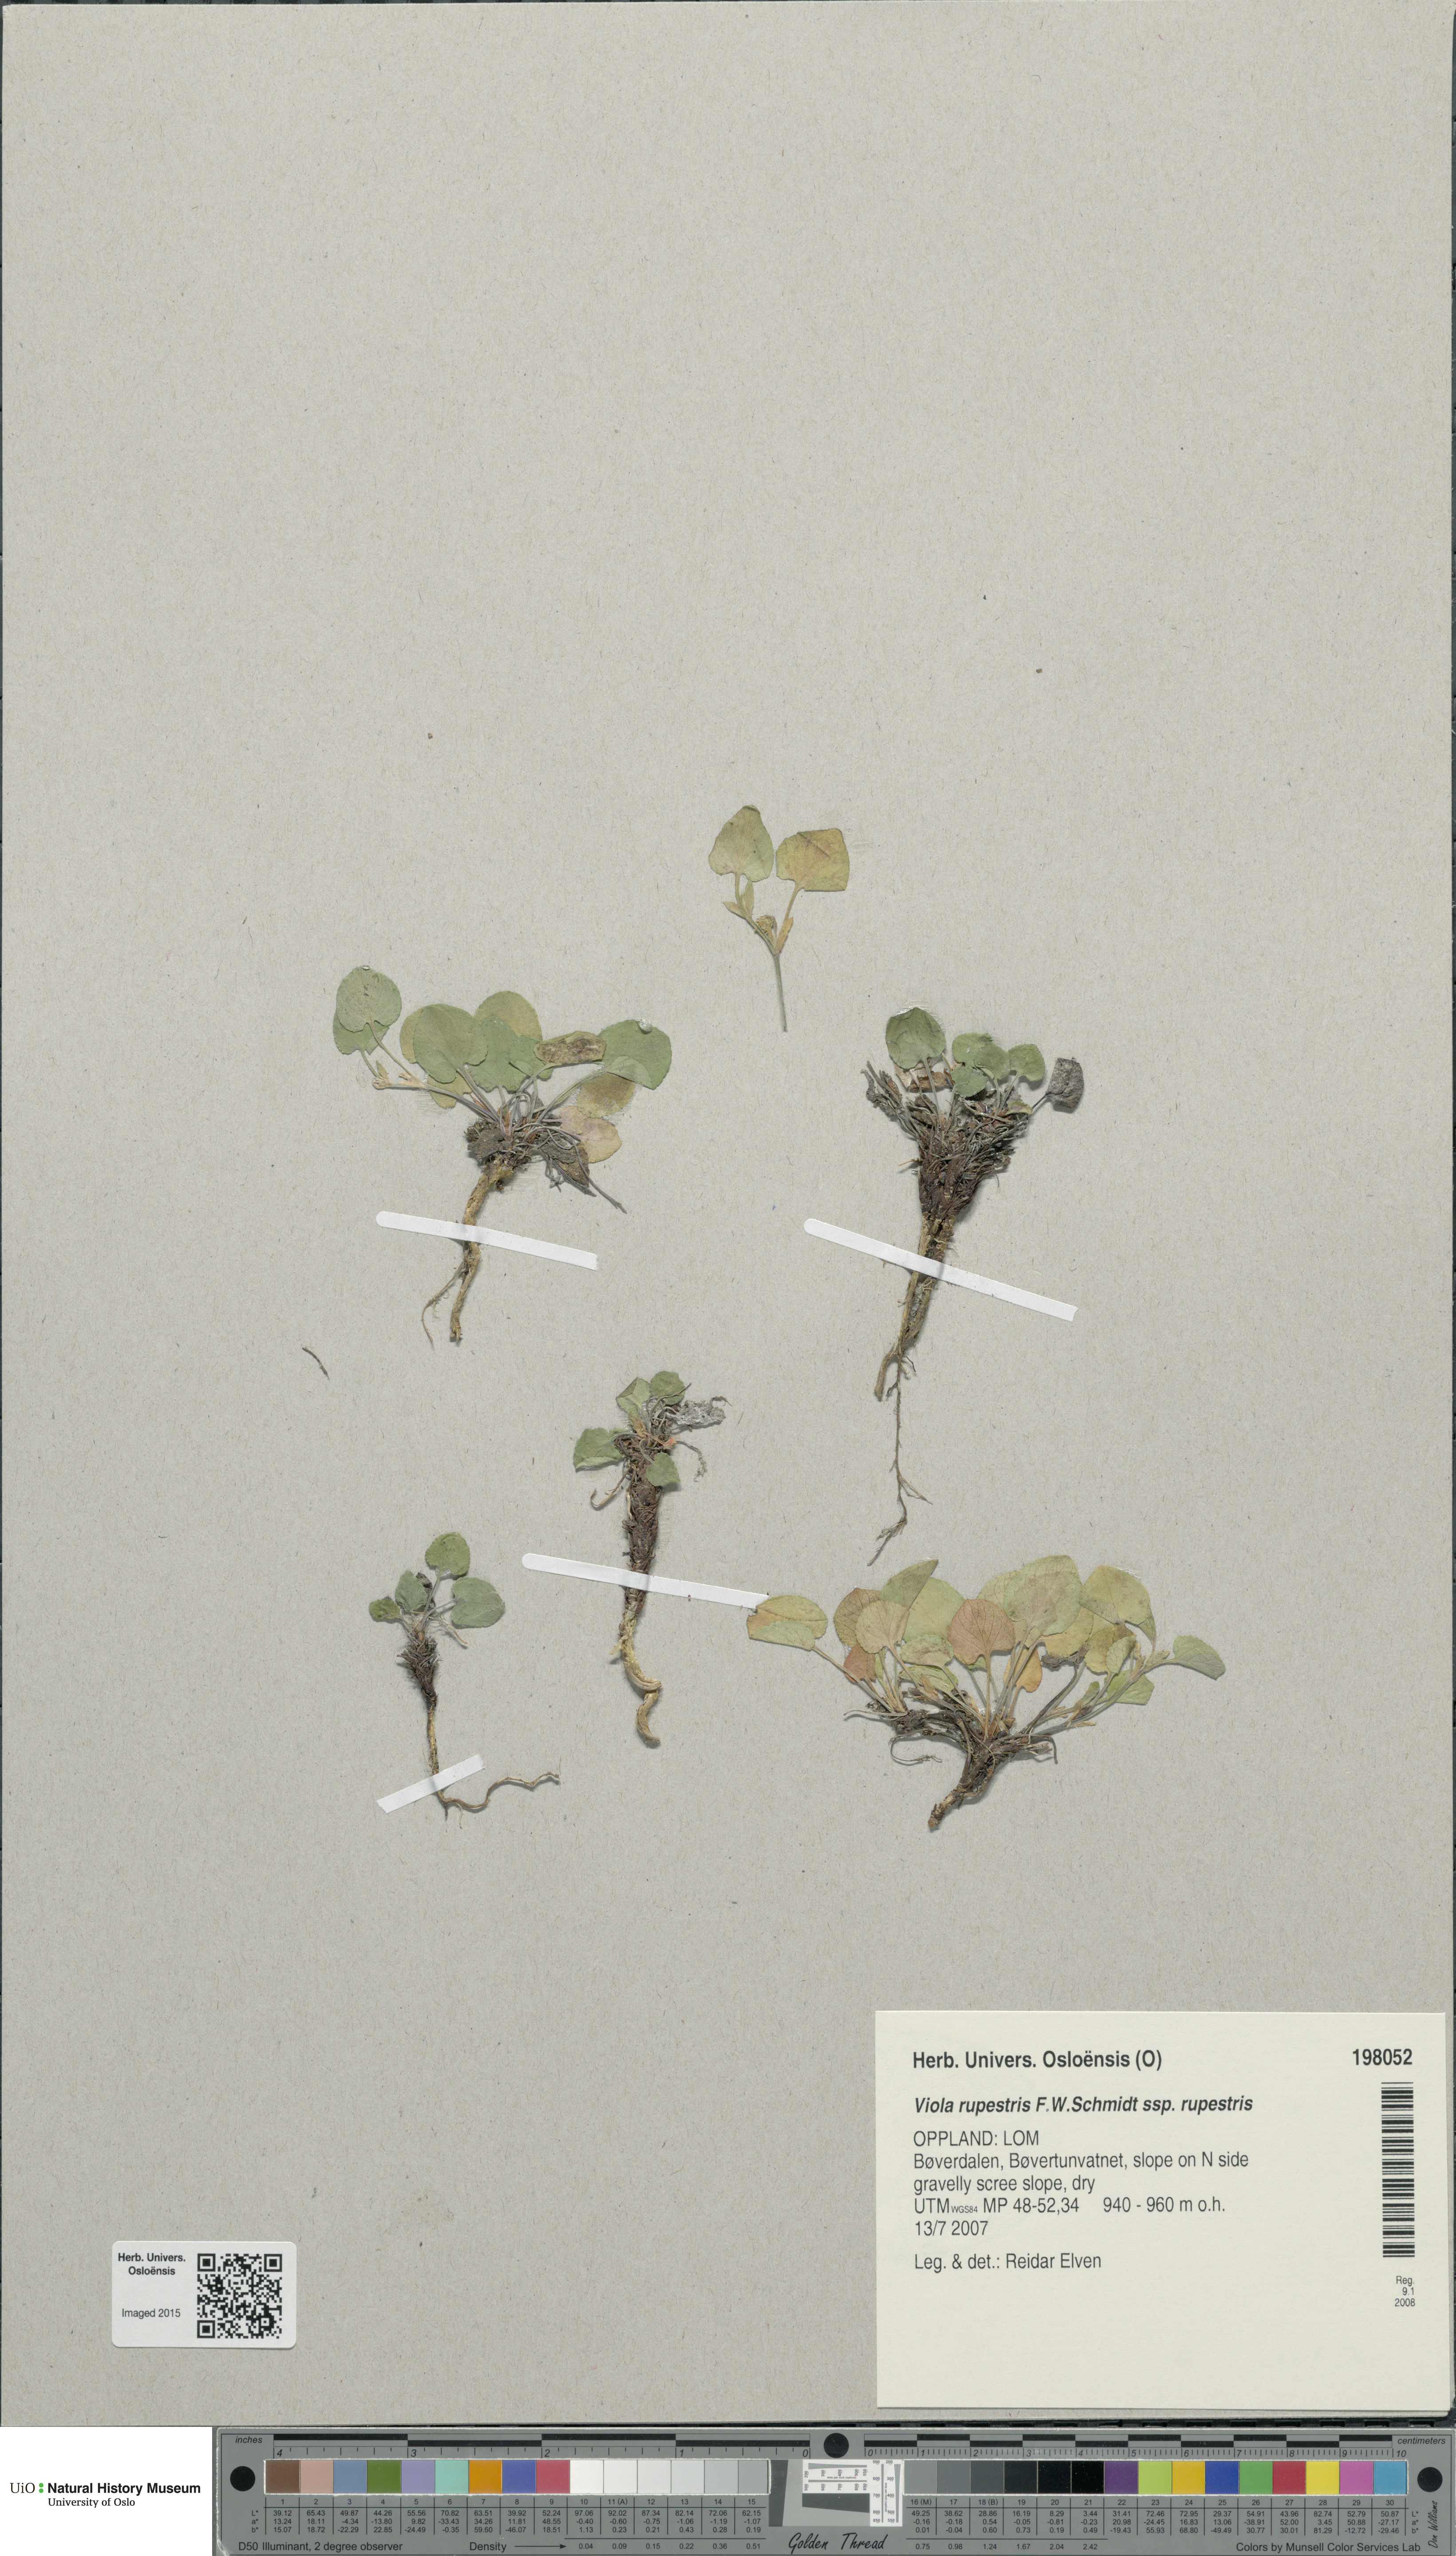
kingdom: Plantae
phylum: Tracheophyta
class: Magnoliopsida
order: Malpighiales
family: Violaceae
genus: Viola
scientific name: Viola rupestris
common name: Teesdale violet
